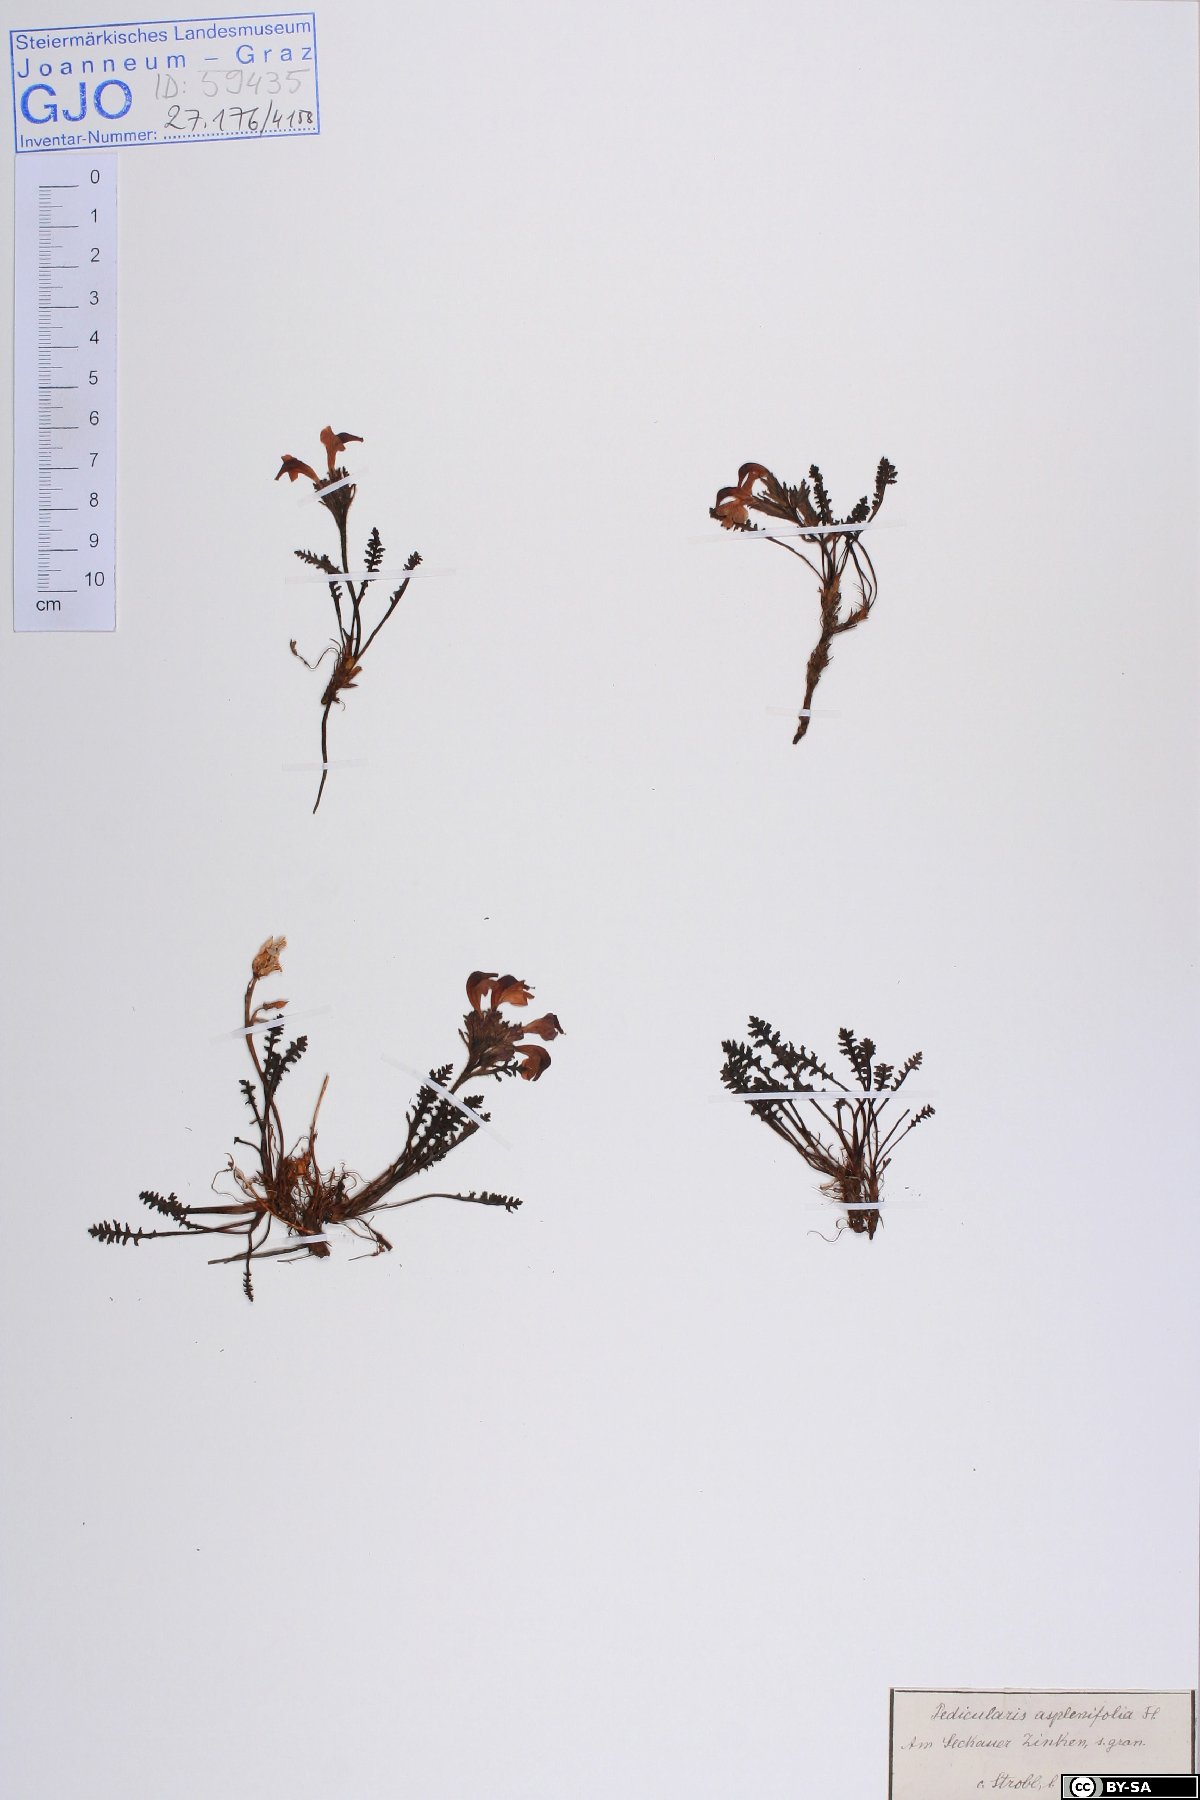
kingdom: Plantae
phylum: Tracheophyta
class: Magnoliopsida
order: Lamiales
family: Orobanchaceae
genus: Pedicularis
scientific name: Pedicularis asplenifolia
